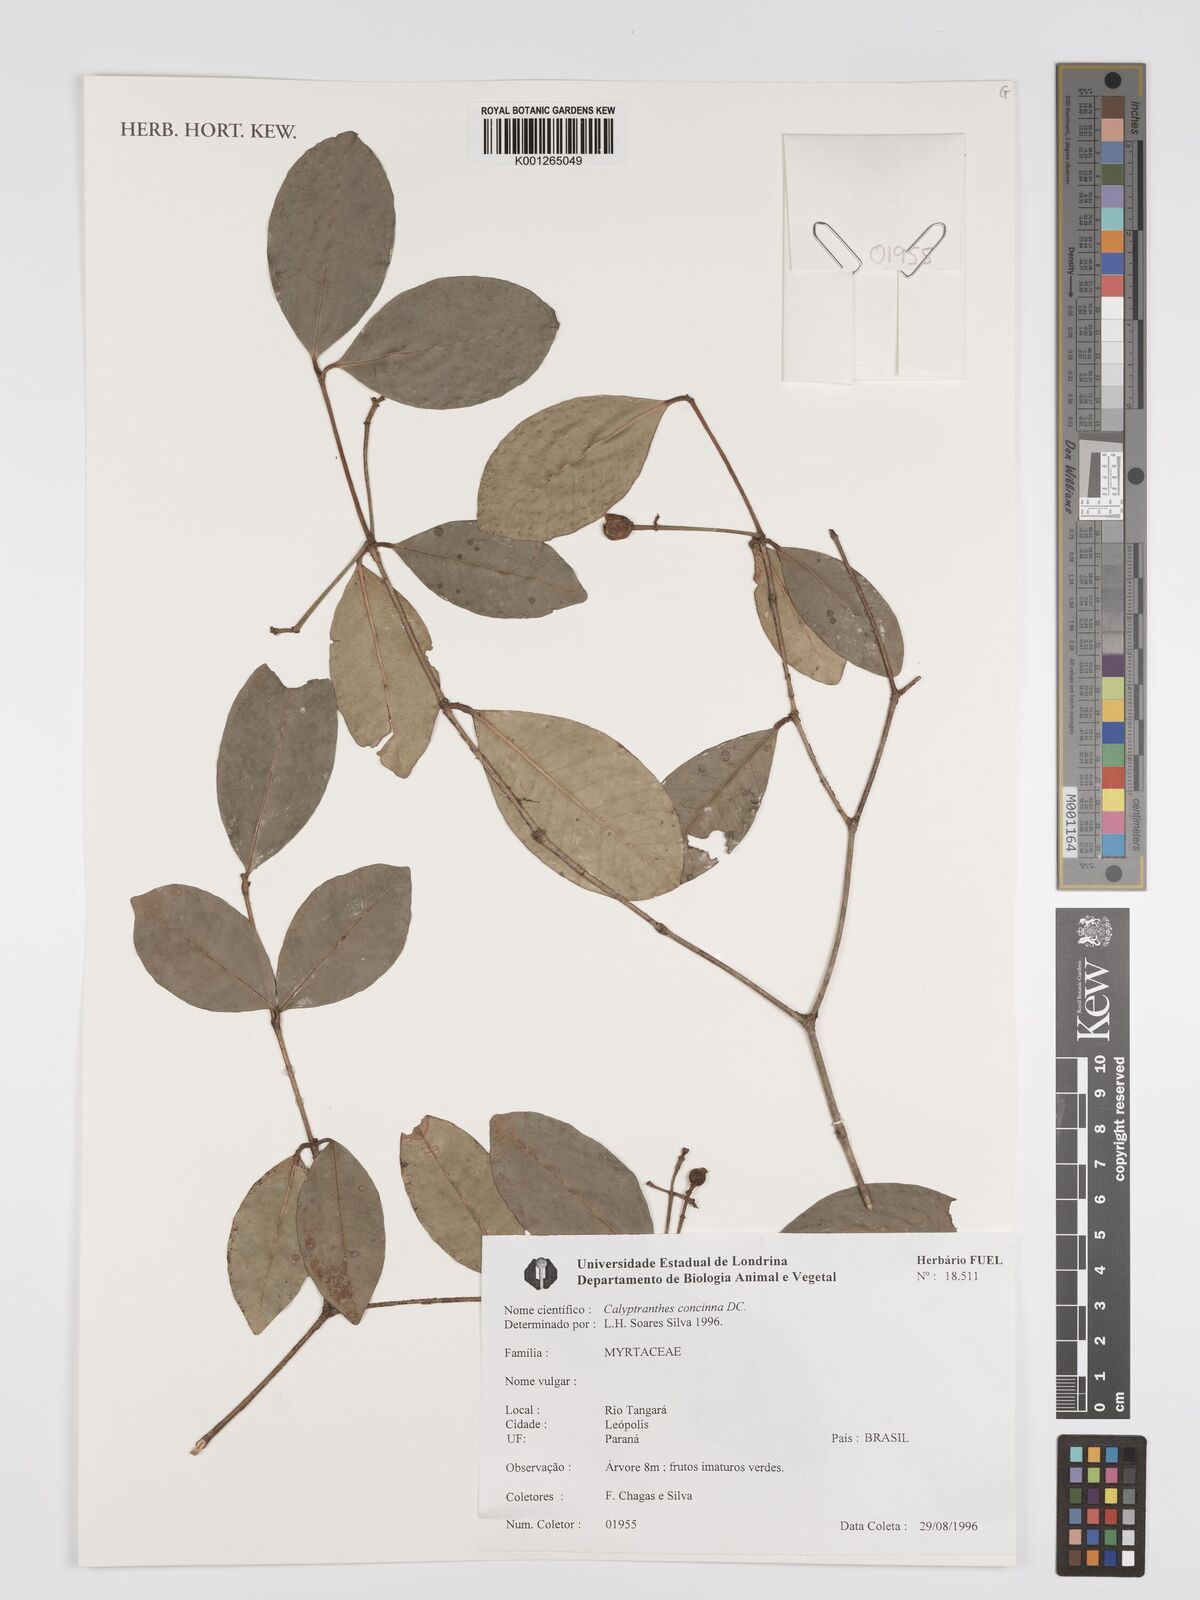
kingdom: Plantae
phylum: Tracheophyta
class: Magnoliopsida
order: Myrtales
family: Myrtaceae
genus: Myrcia
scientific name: Myrcia cruciflora
